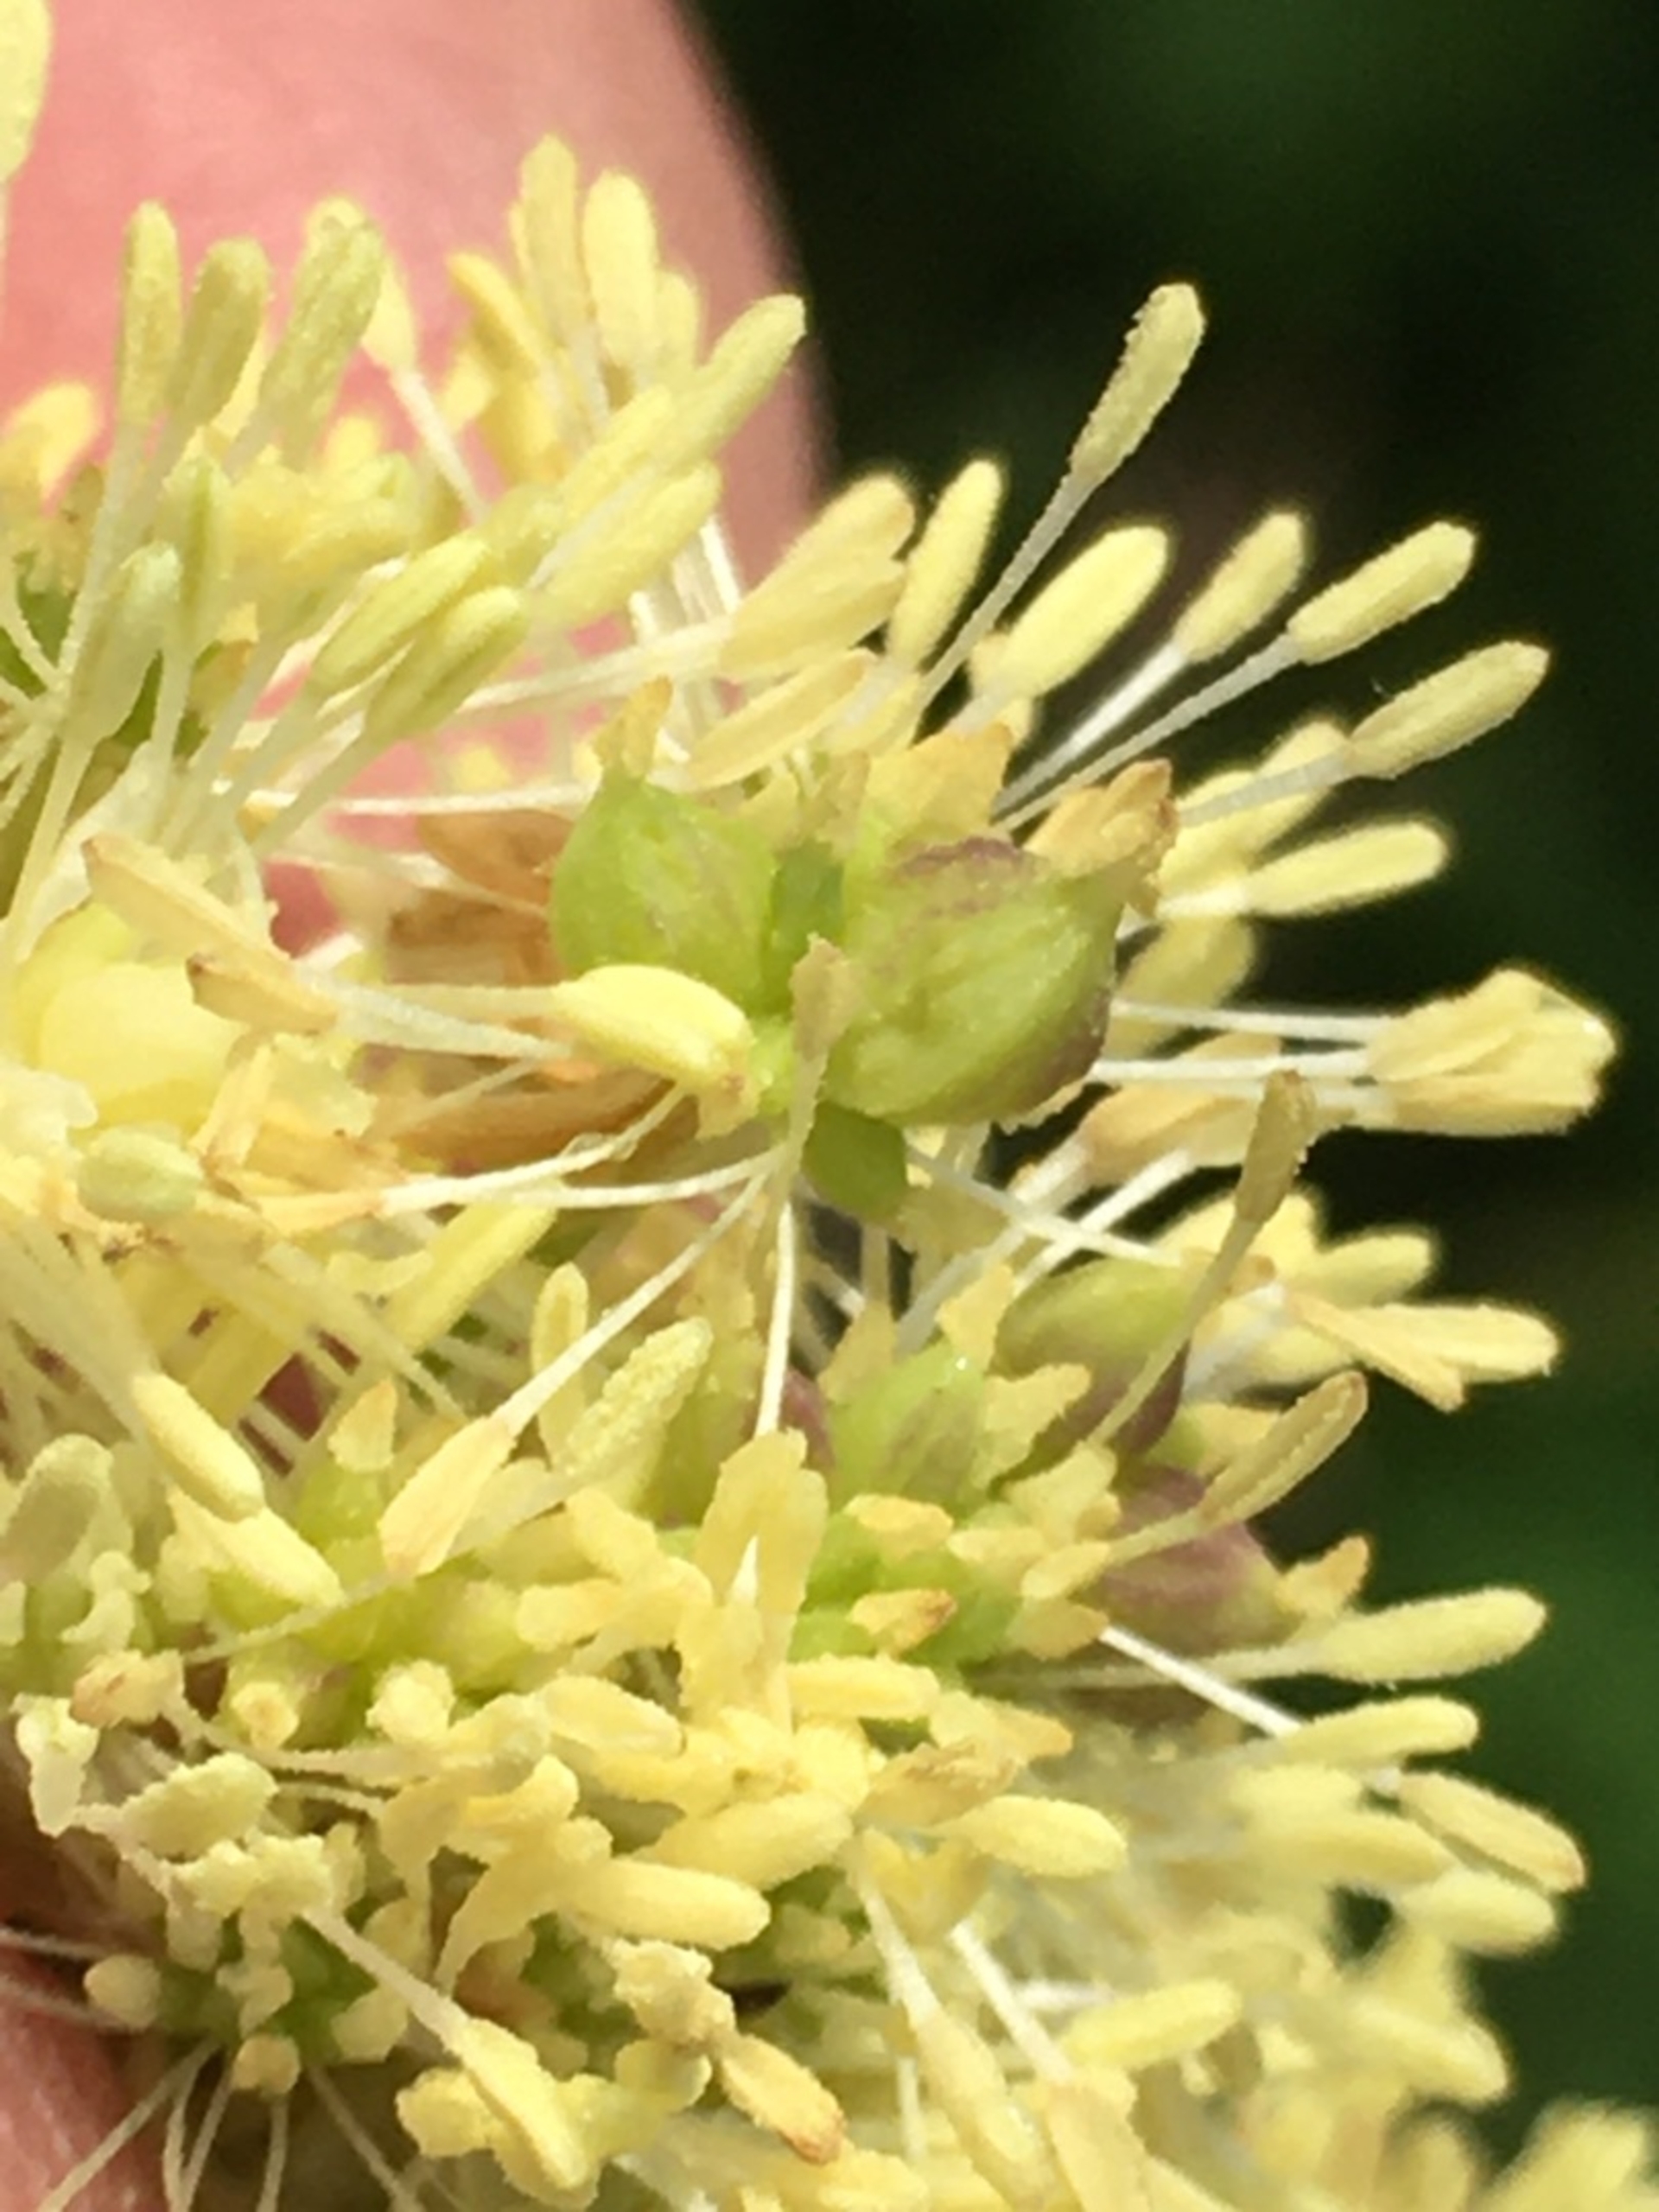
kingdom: Animalia
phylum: Arthropoda
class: Insecta
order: Diptera
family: Cecidomyiidae
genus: Ametrodiplosis
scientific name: Ametrodiplosis thalictricola
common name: Frøstjernegalmyg
